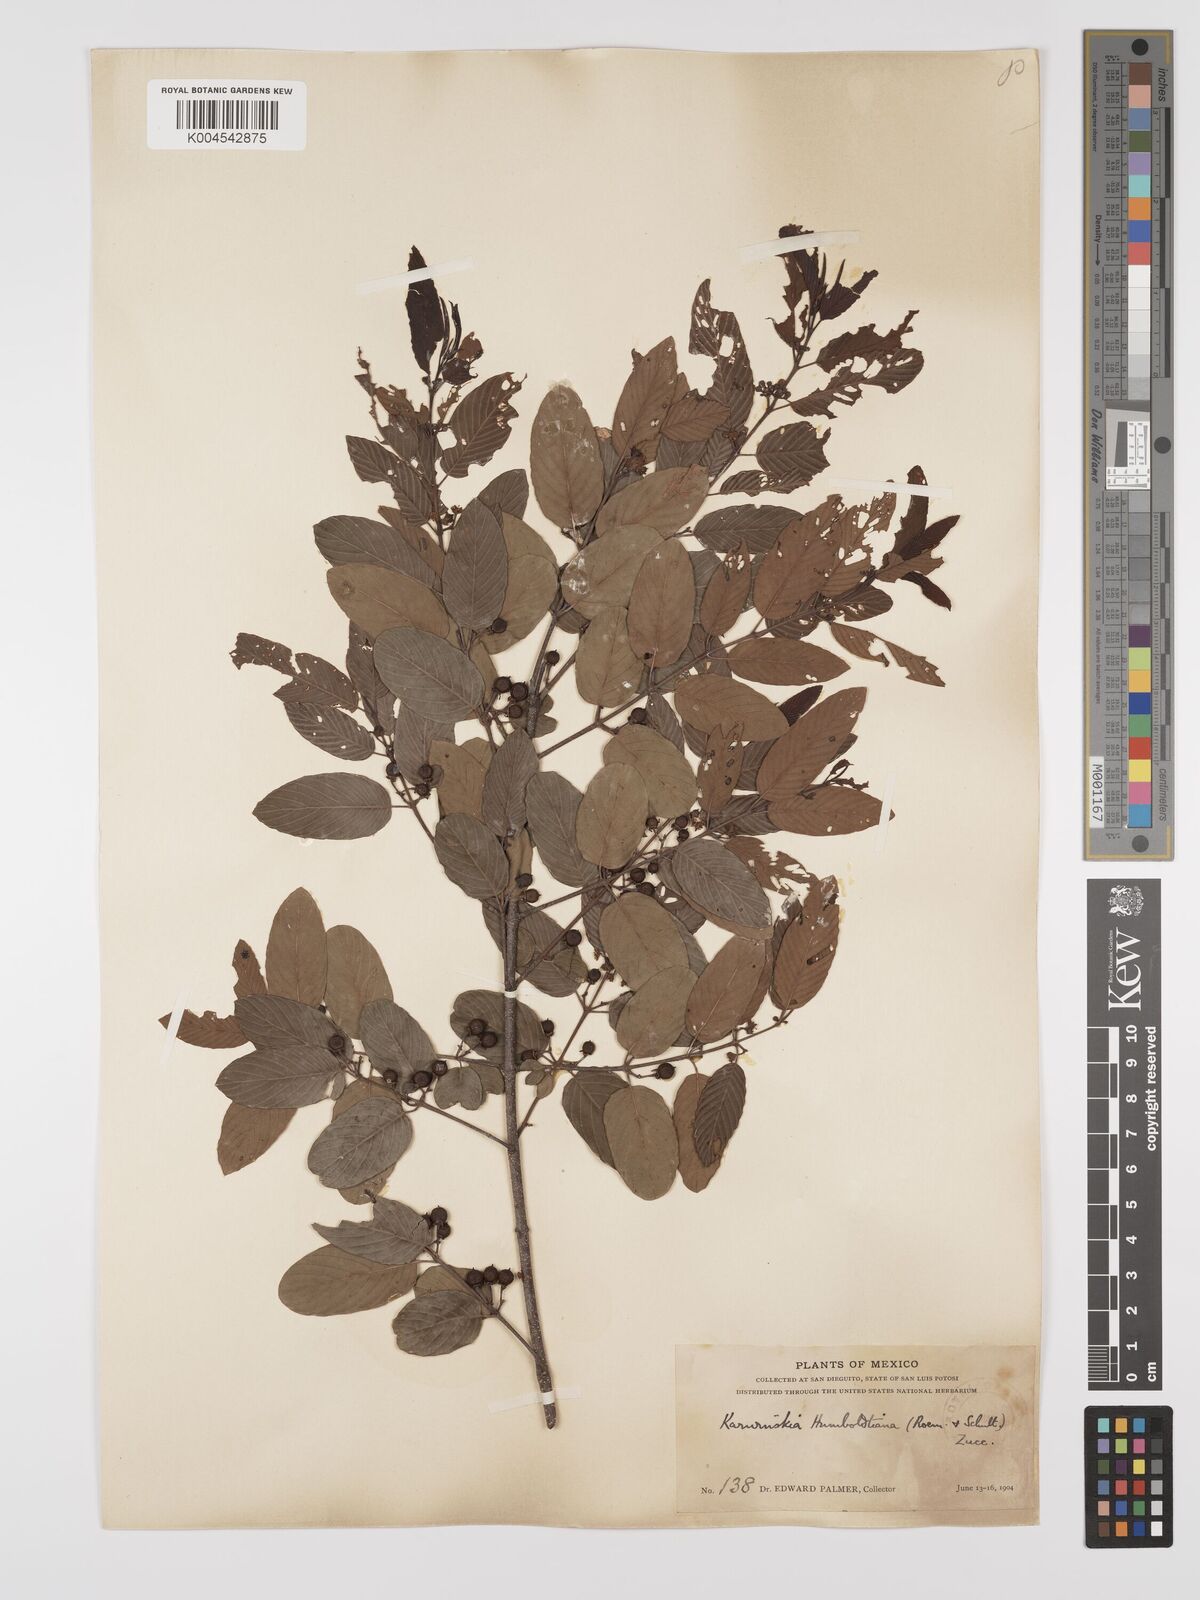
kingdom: Plantae
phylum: Tracheophyta
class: Magnoliopsida
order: Rosales
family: Rhamnaceae
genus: Karwinskia
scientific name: Karwinskia humboldtiana
